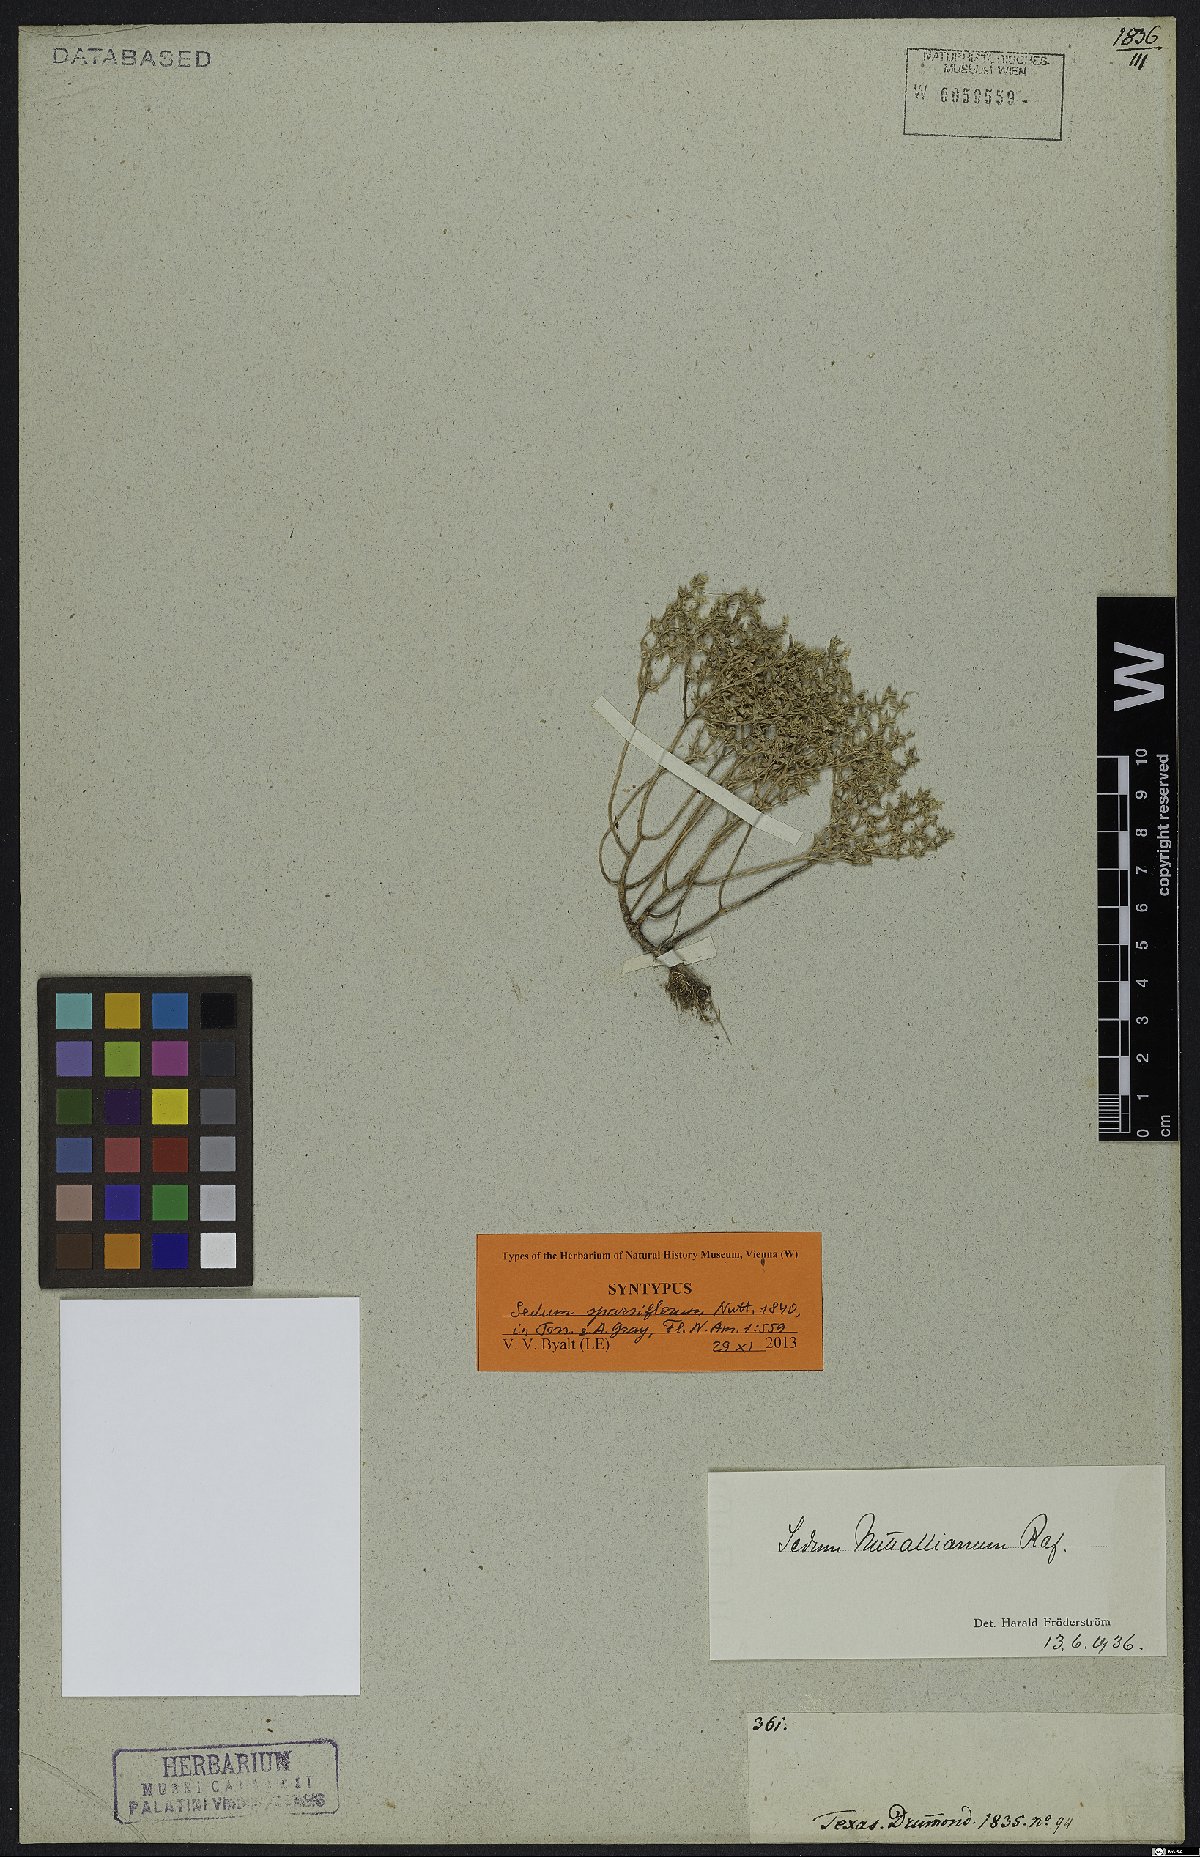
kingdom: Plantae
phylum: Tracheophyta
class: Magnoliopsida
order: Saxifragales
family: Crassulaceae
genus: Sedum
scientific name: Sedum nuttallii
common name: Yellow stonecrop
